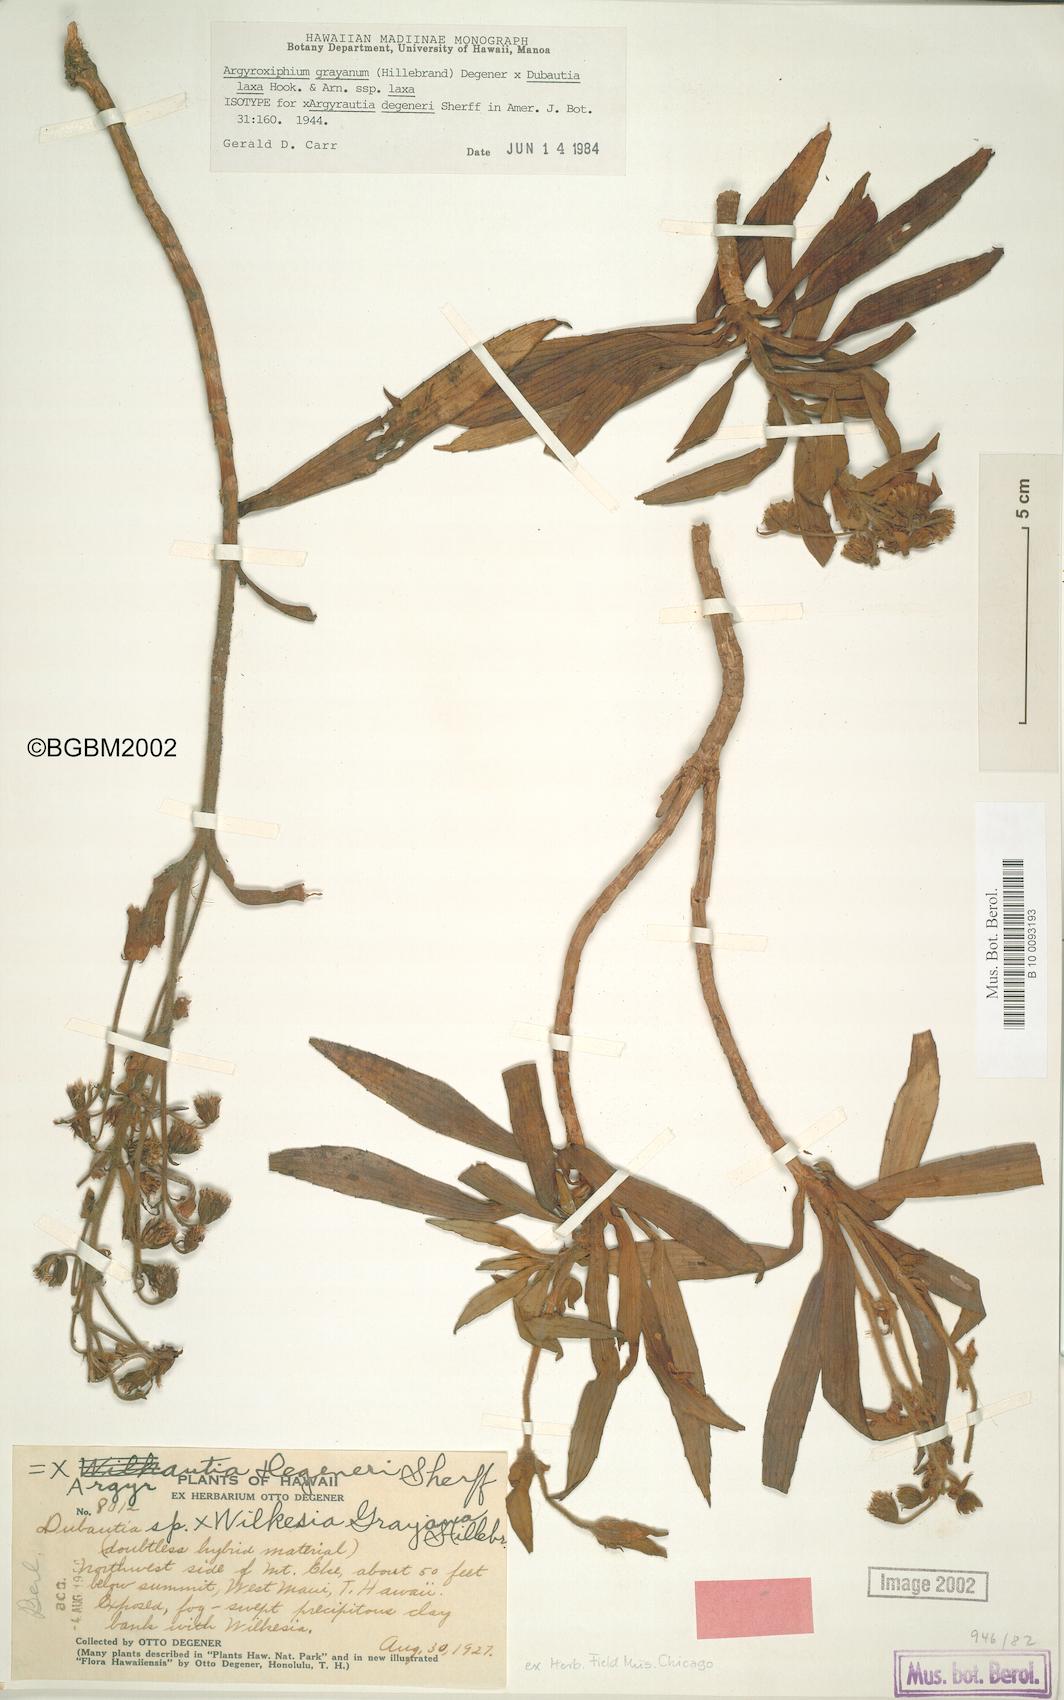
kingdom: Plantae
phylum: Tracheophyta
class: Magnoliopsida
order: Asterales
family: Asteraceae
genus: Argyroxiphium
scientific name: Argyroxiphium grayanum
